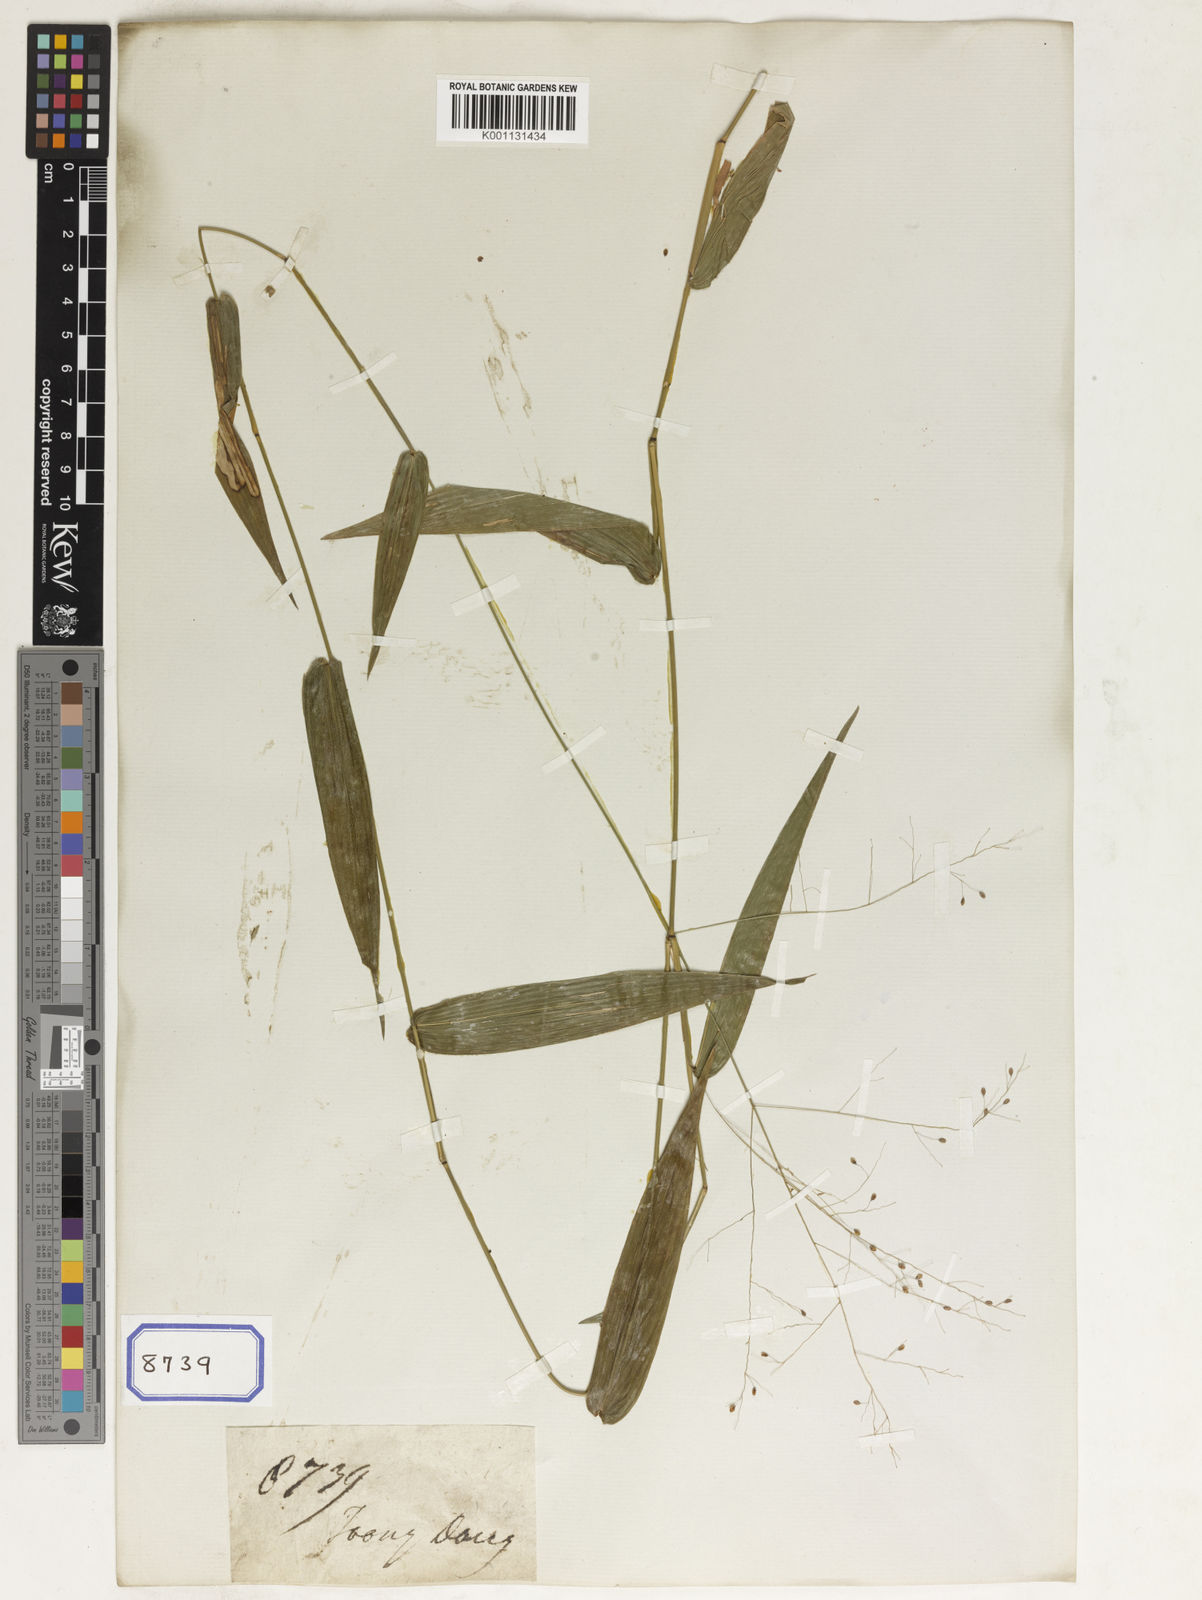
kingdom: Plantae
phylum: Tracheophyta
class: Liliopsida
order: Poales
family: Poaceae
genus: Panicum
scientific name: Panicum
